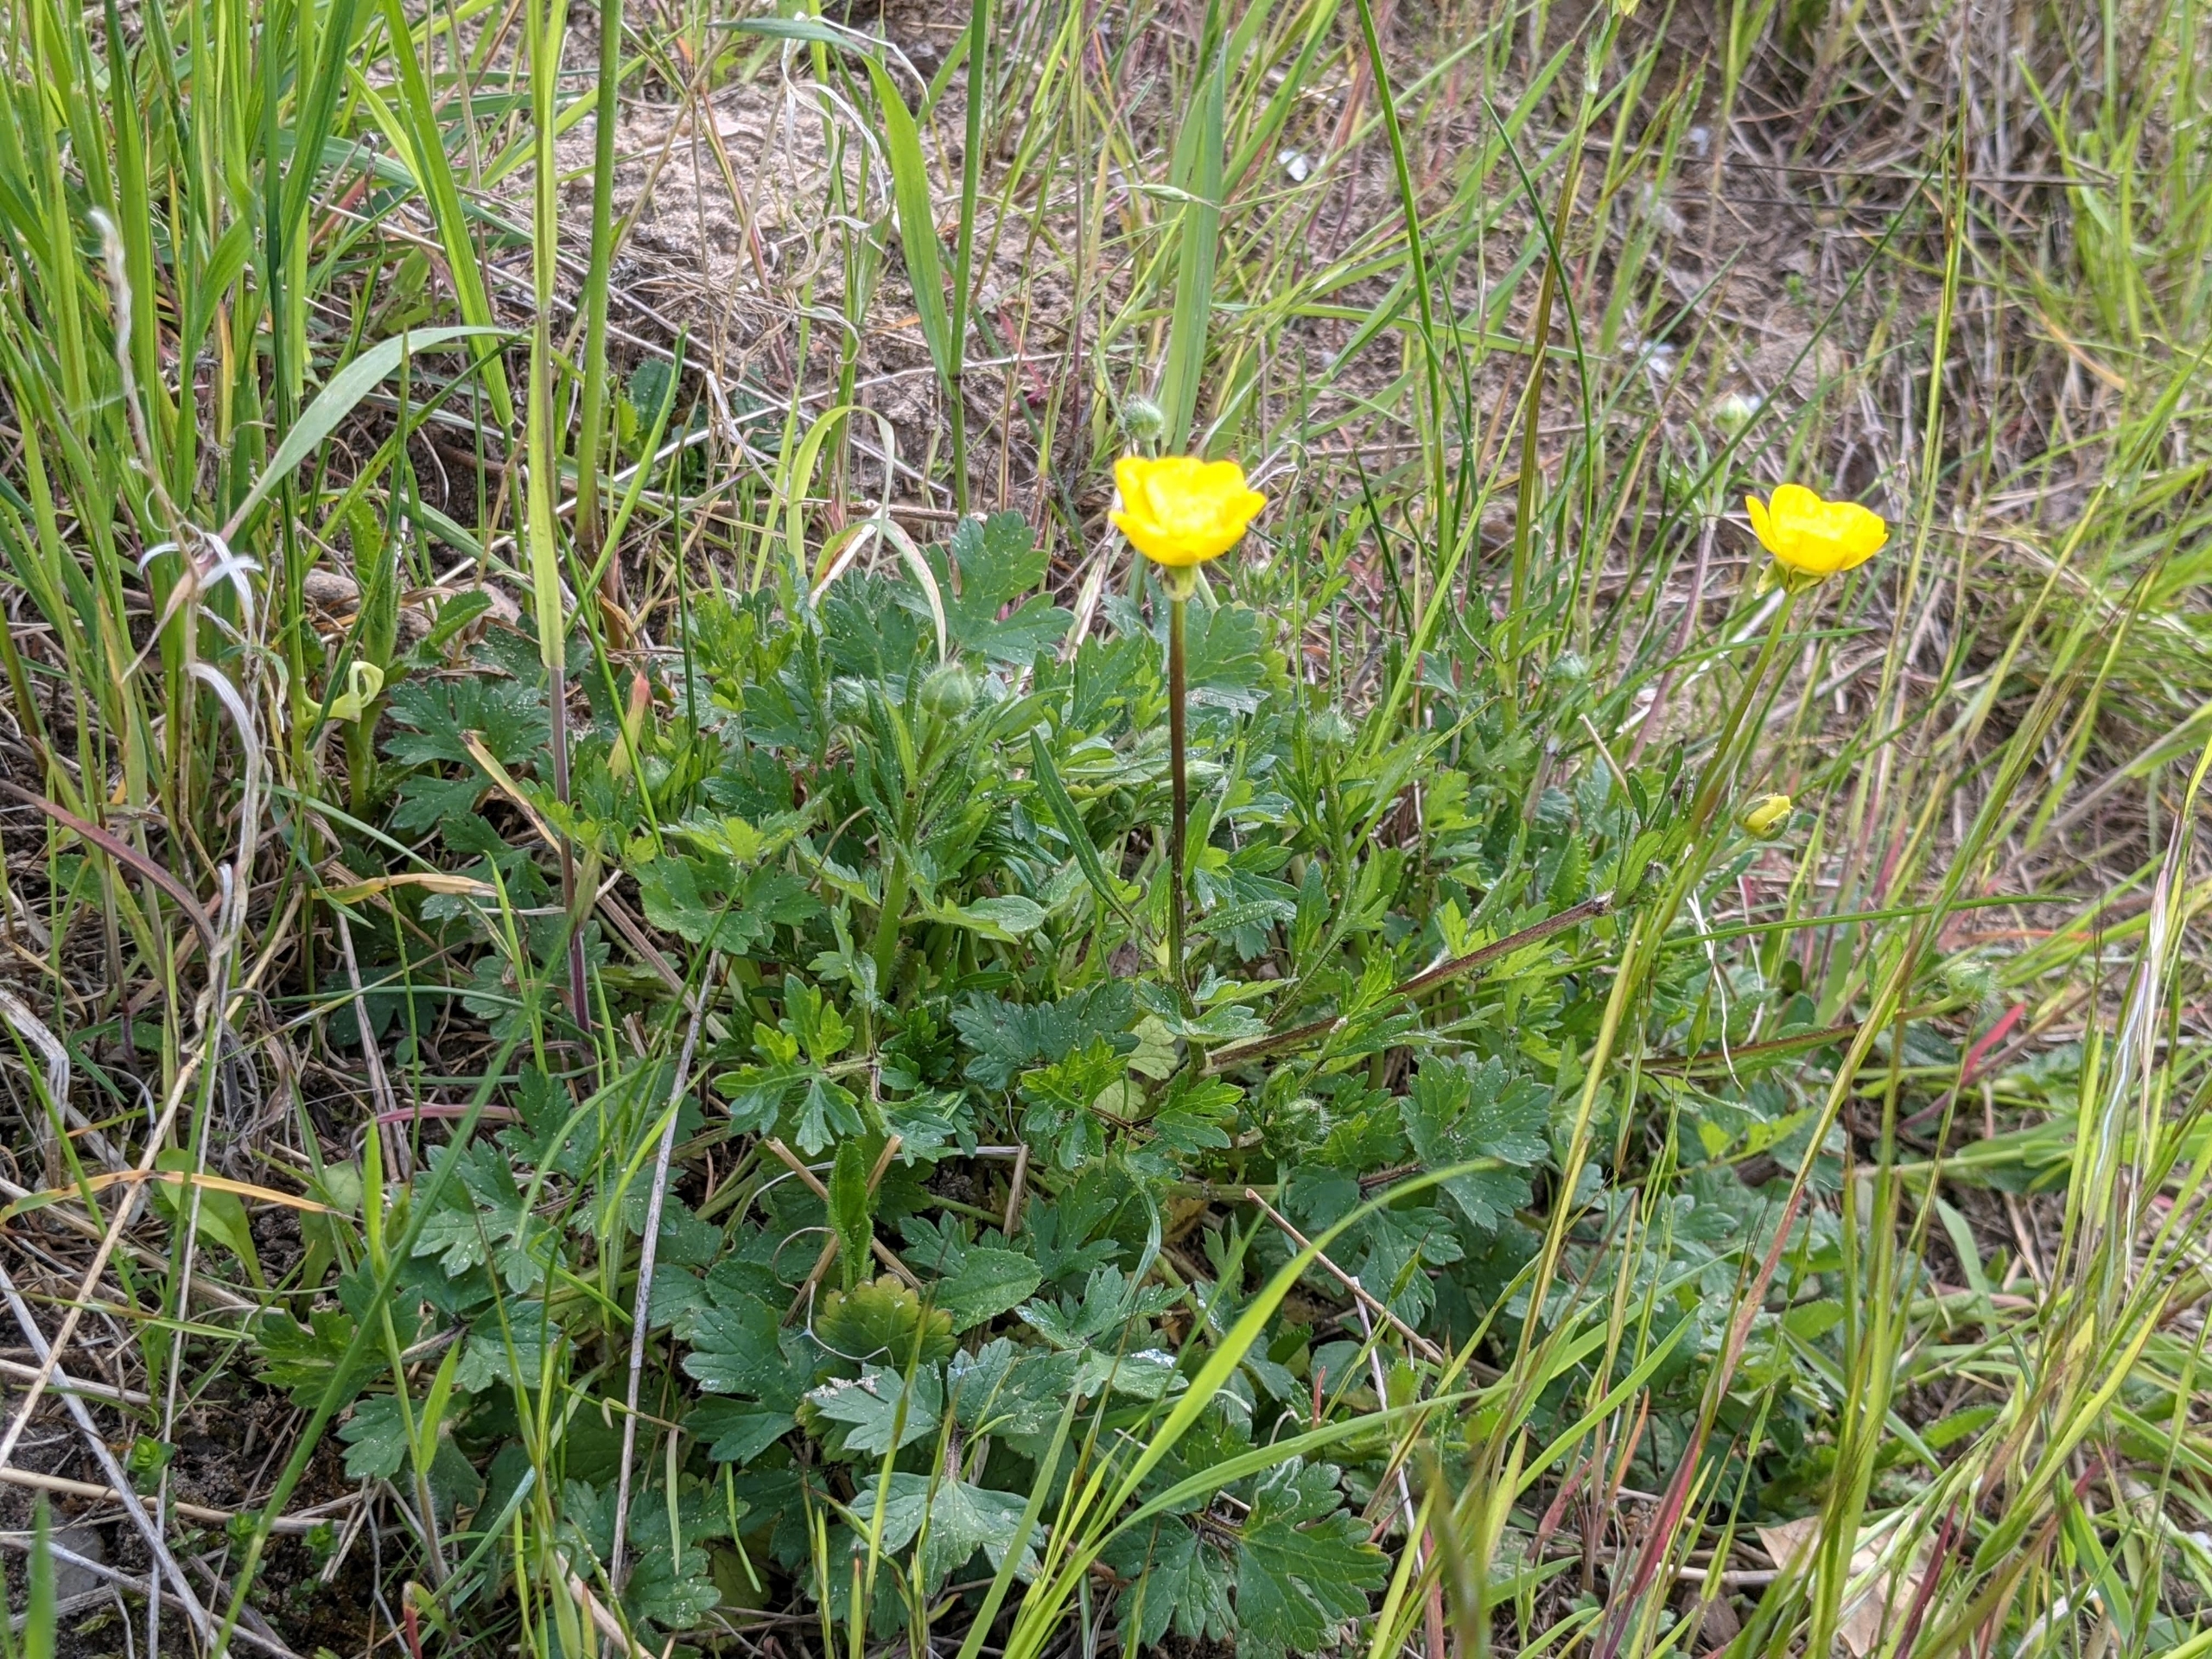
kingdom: Plantae
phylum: Tracheophyta
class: Magnoliopsida
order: Ranunculales
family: Ranunculaceae
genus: Ranunculus
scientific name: Ranunculus bulbosus
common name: Knold-ranunkel
